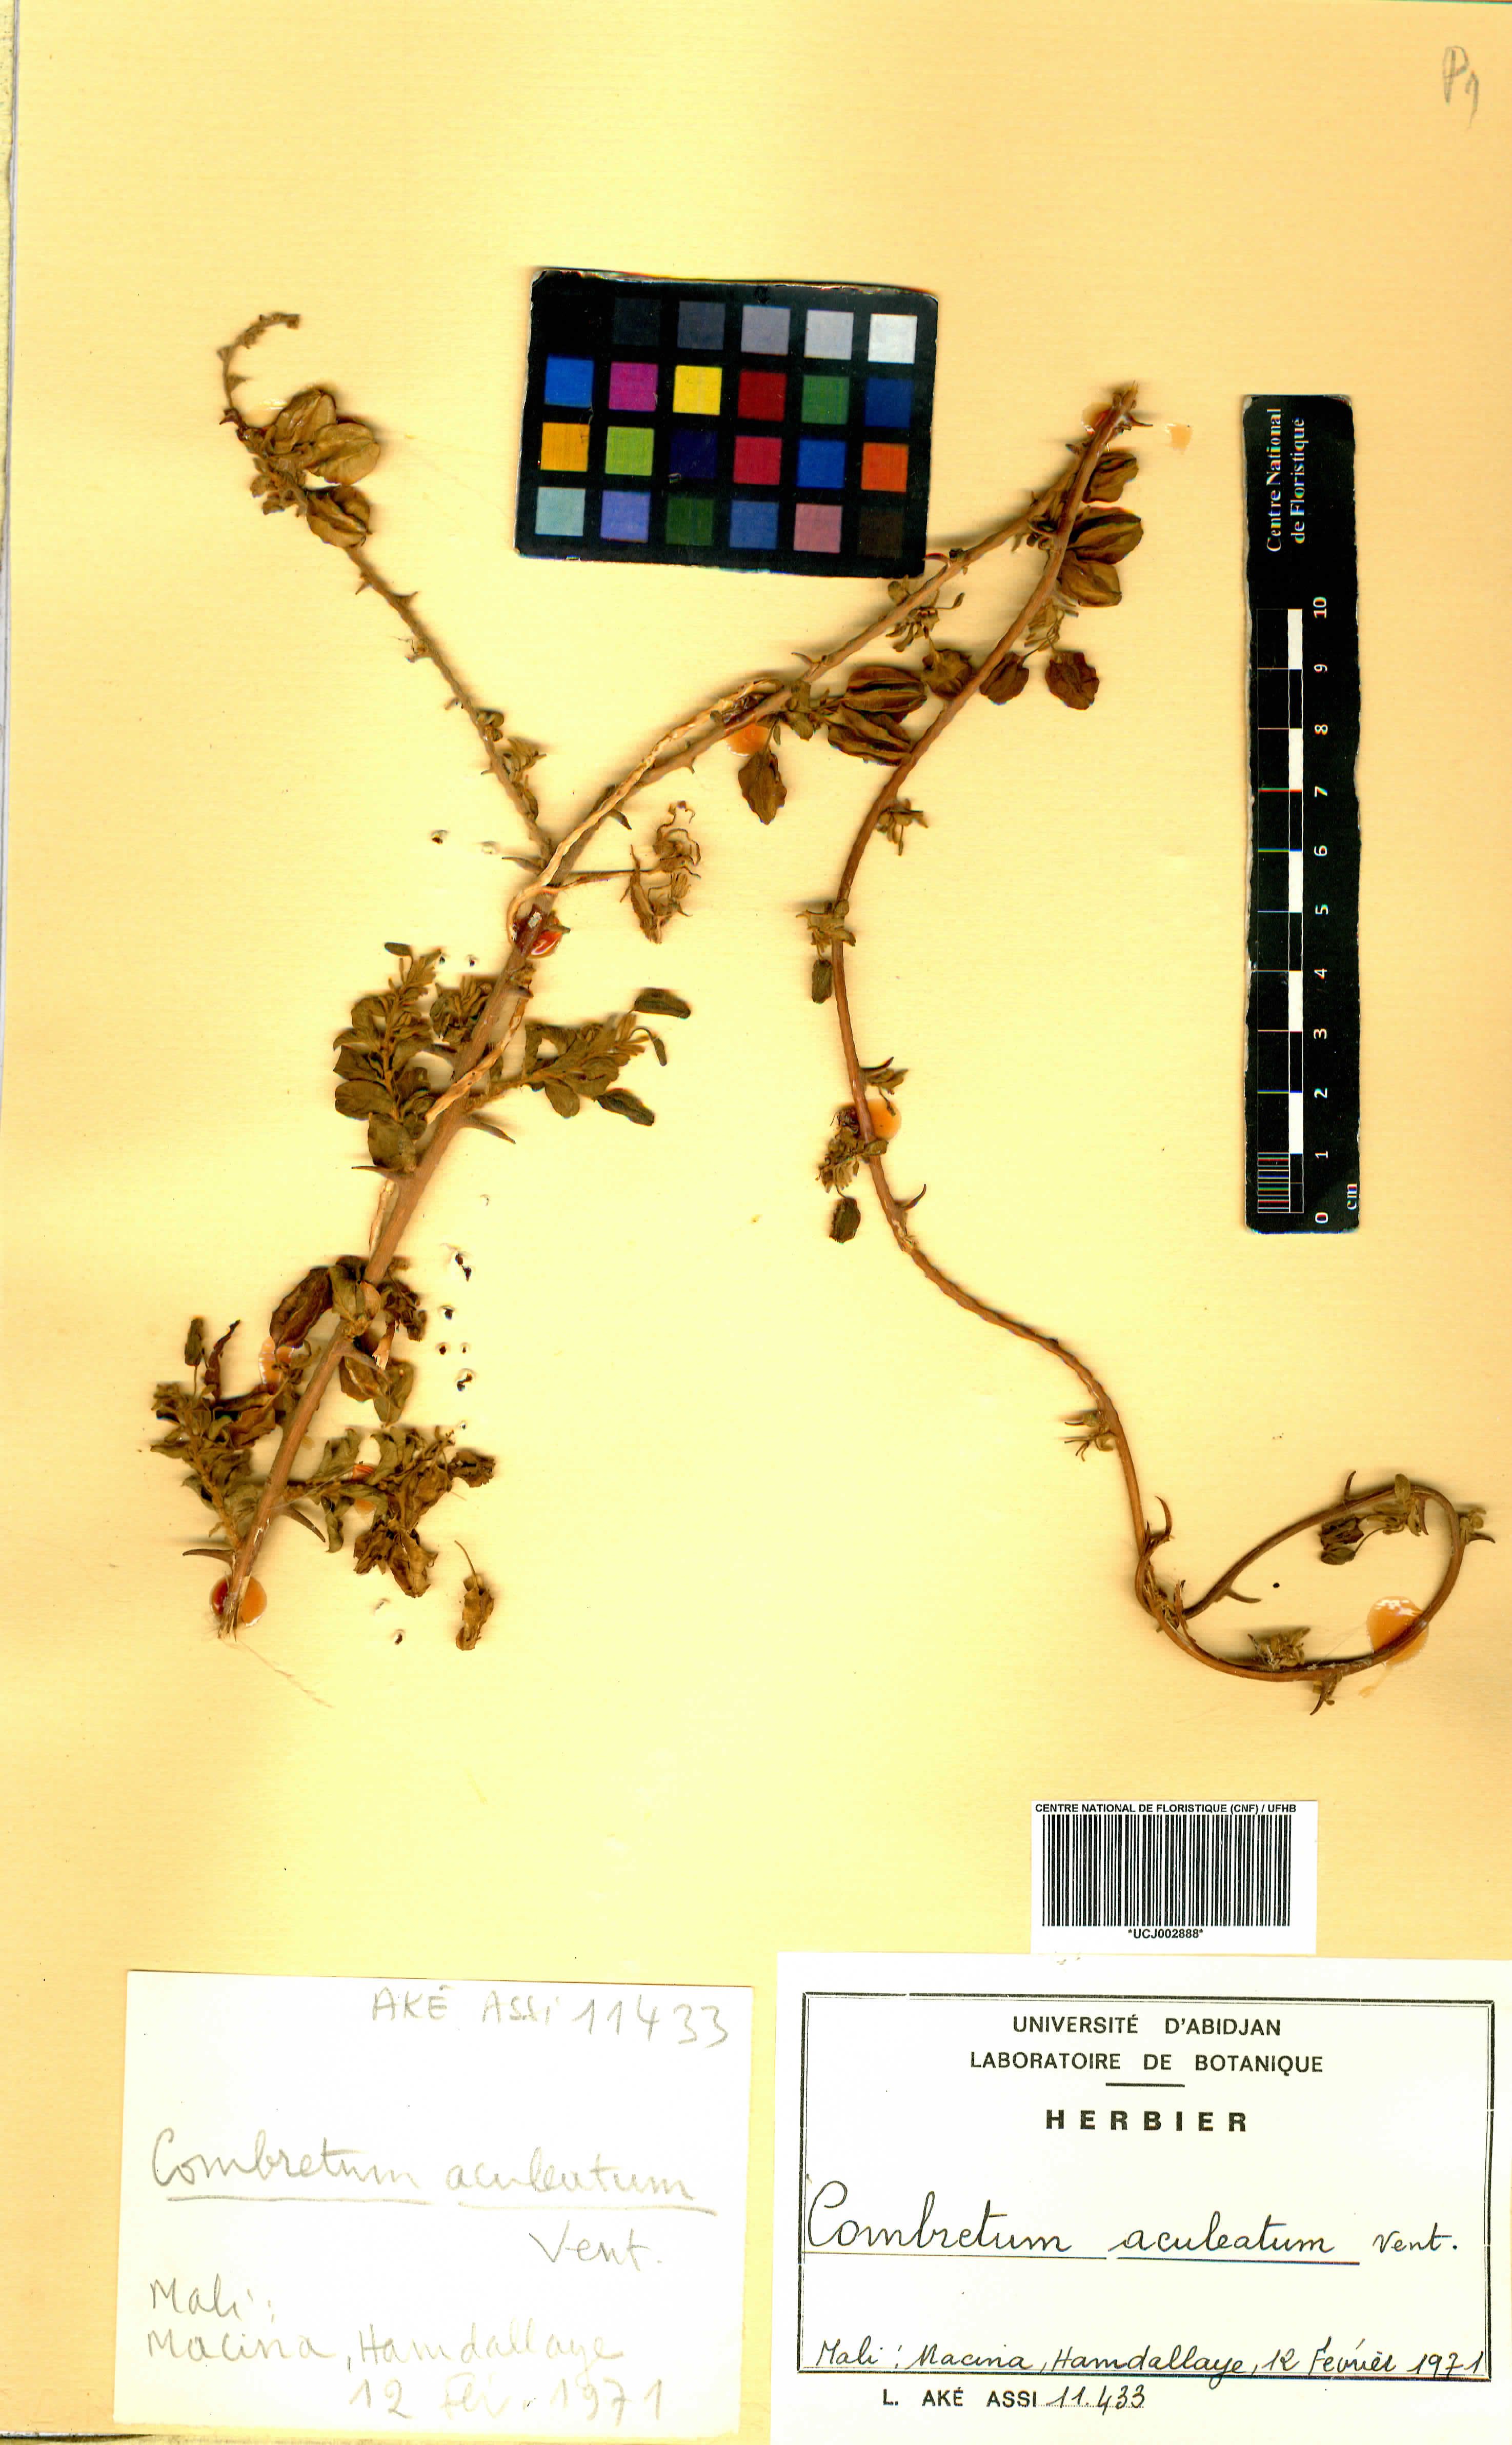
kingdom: Plantae
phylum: Tracheophyta
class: Magnoliopsida
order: Myrtales
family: Combretaceae
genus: Combretum
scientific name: Combretum aculeatum
